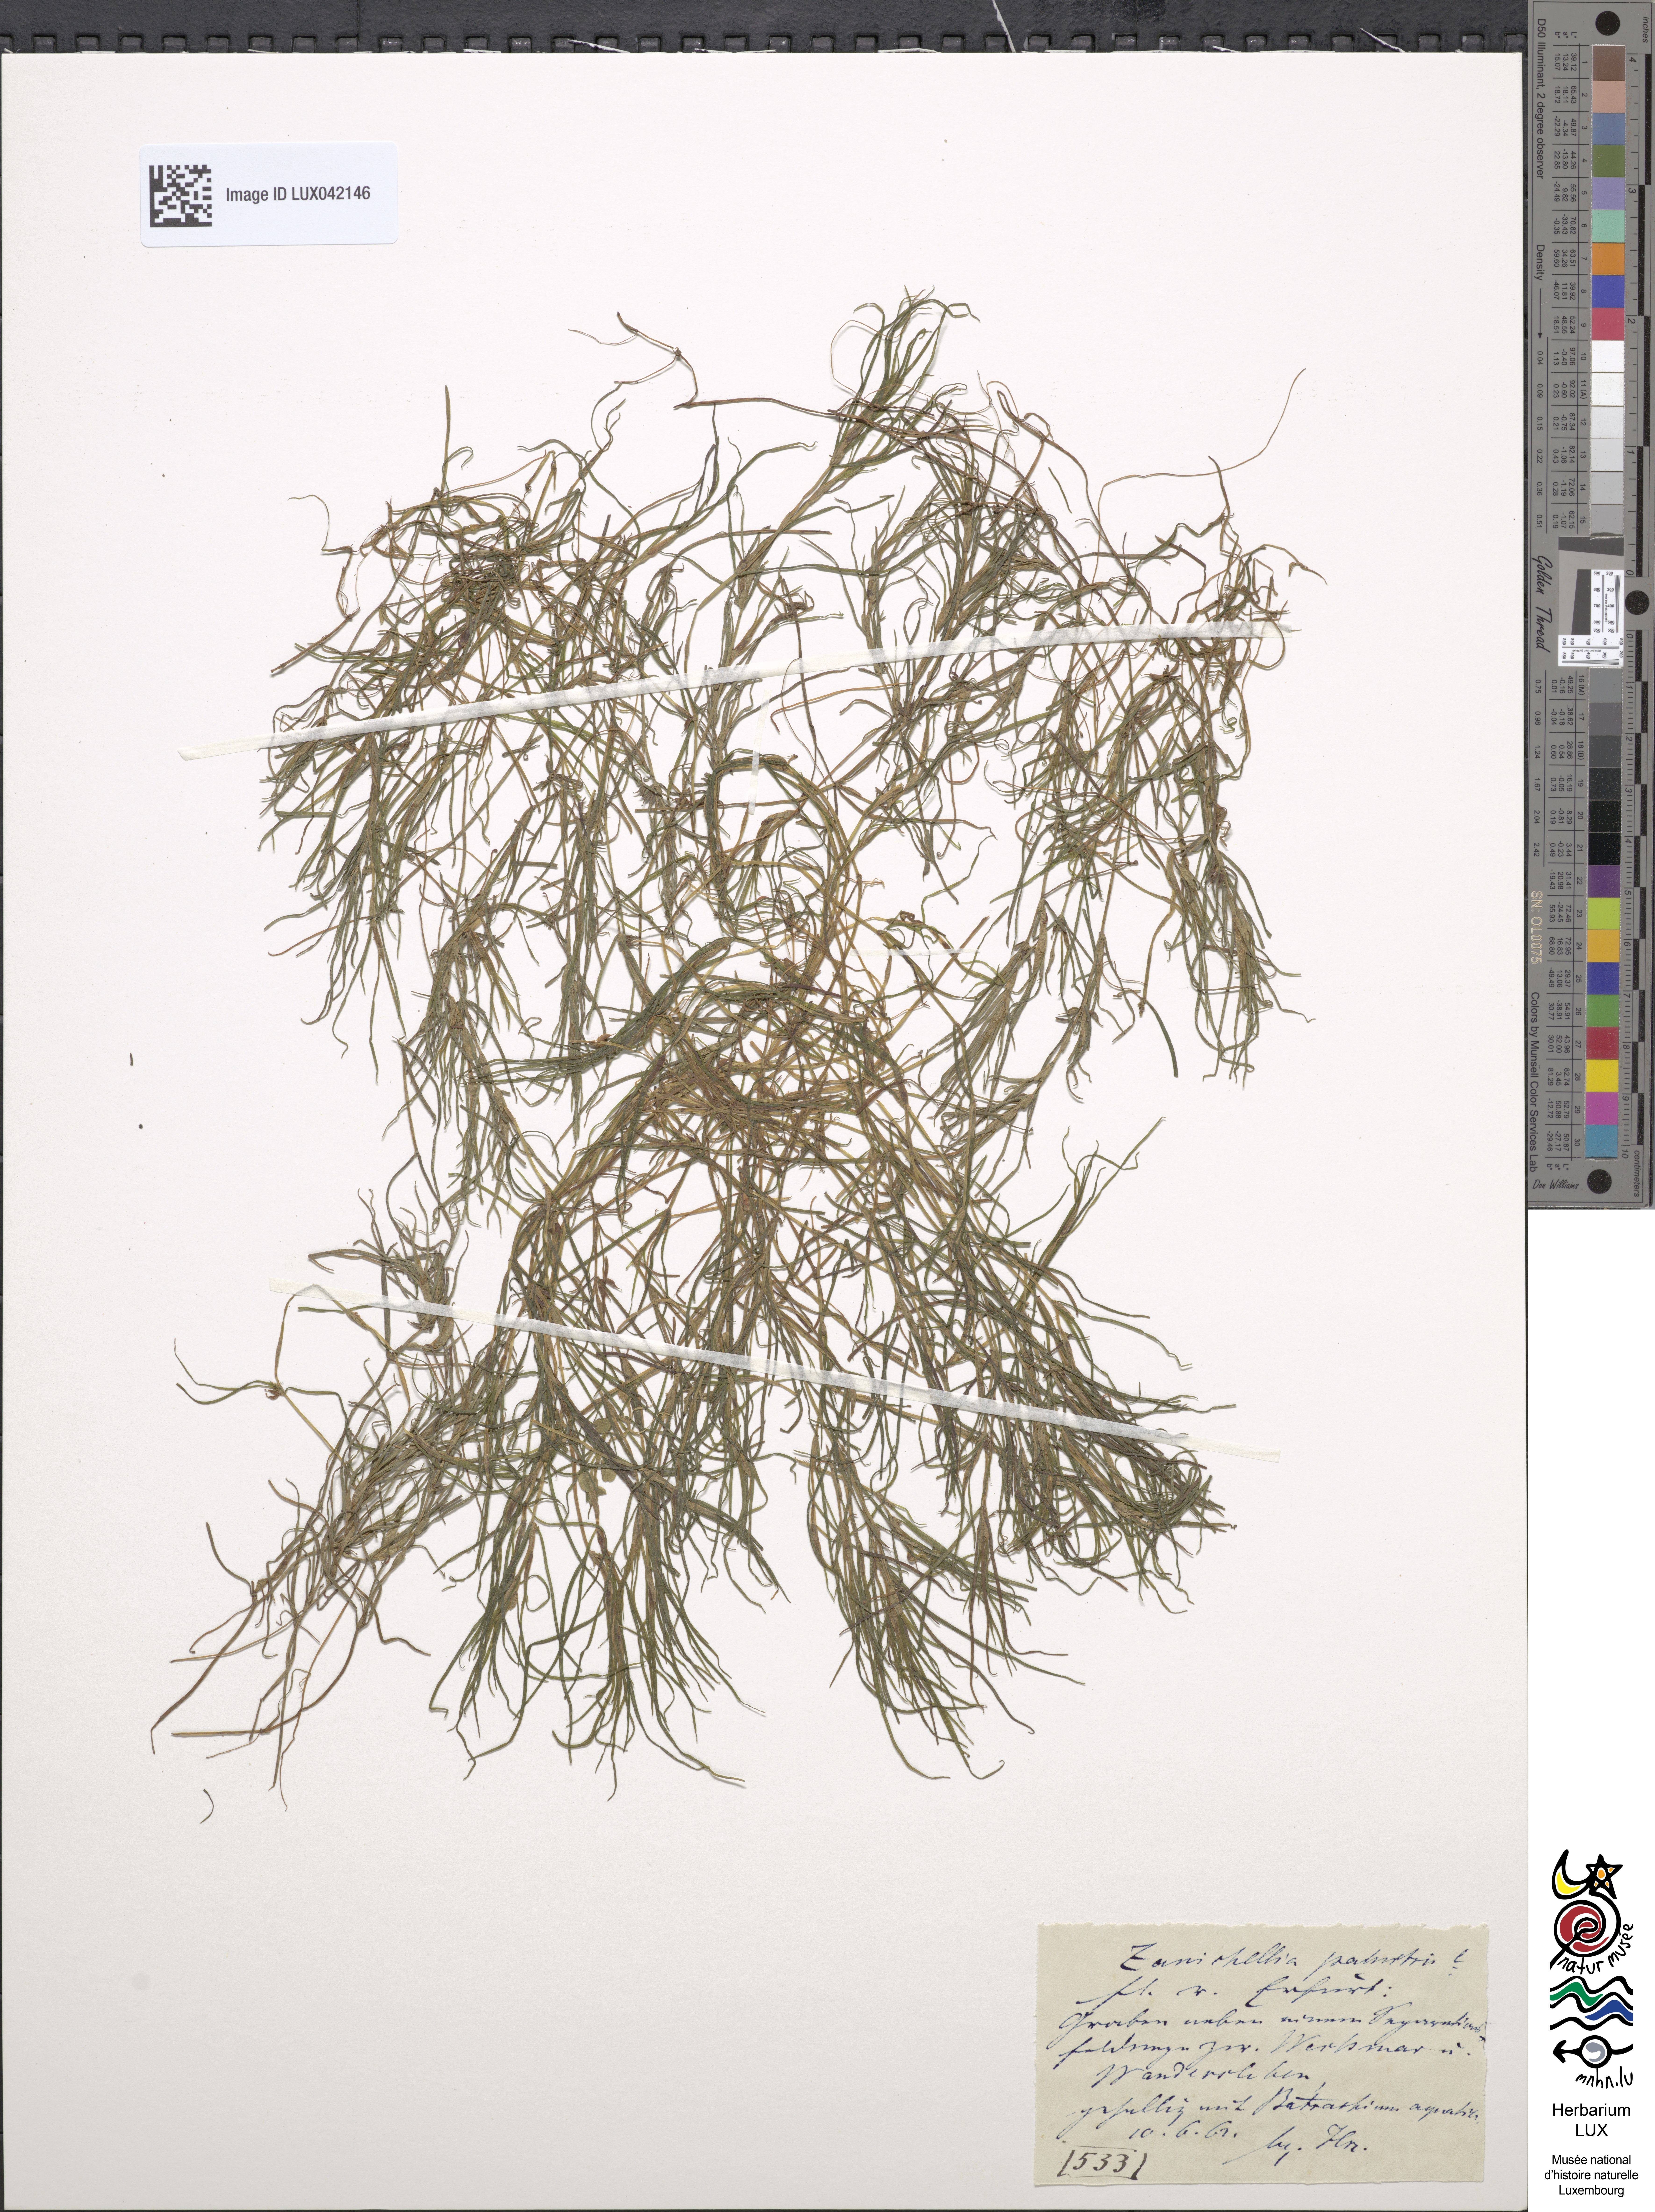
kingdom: Plantae
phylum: Tracheophyta
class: Liliopsida
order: Alismatales
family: Potamogetonaceae
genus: Zannichellia
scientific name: Zannichellia palustris
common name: Horned pondweed
